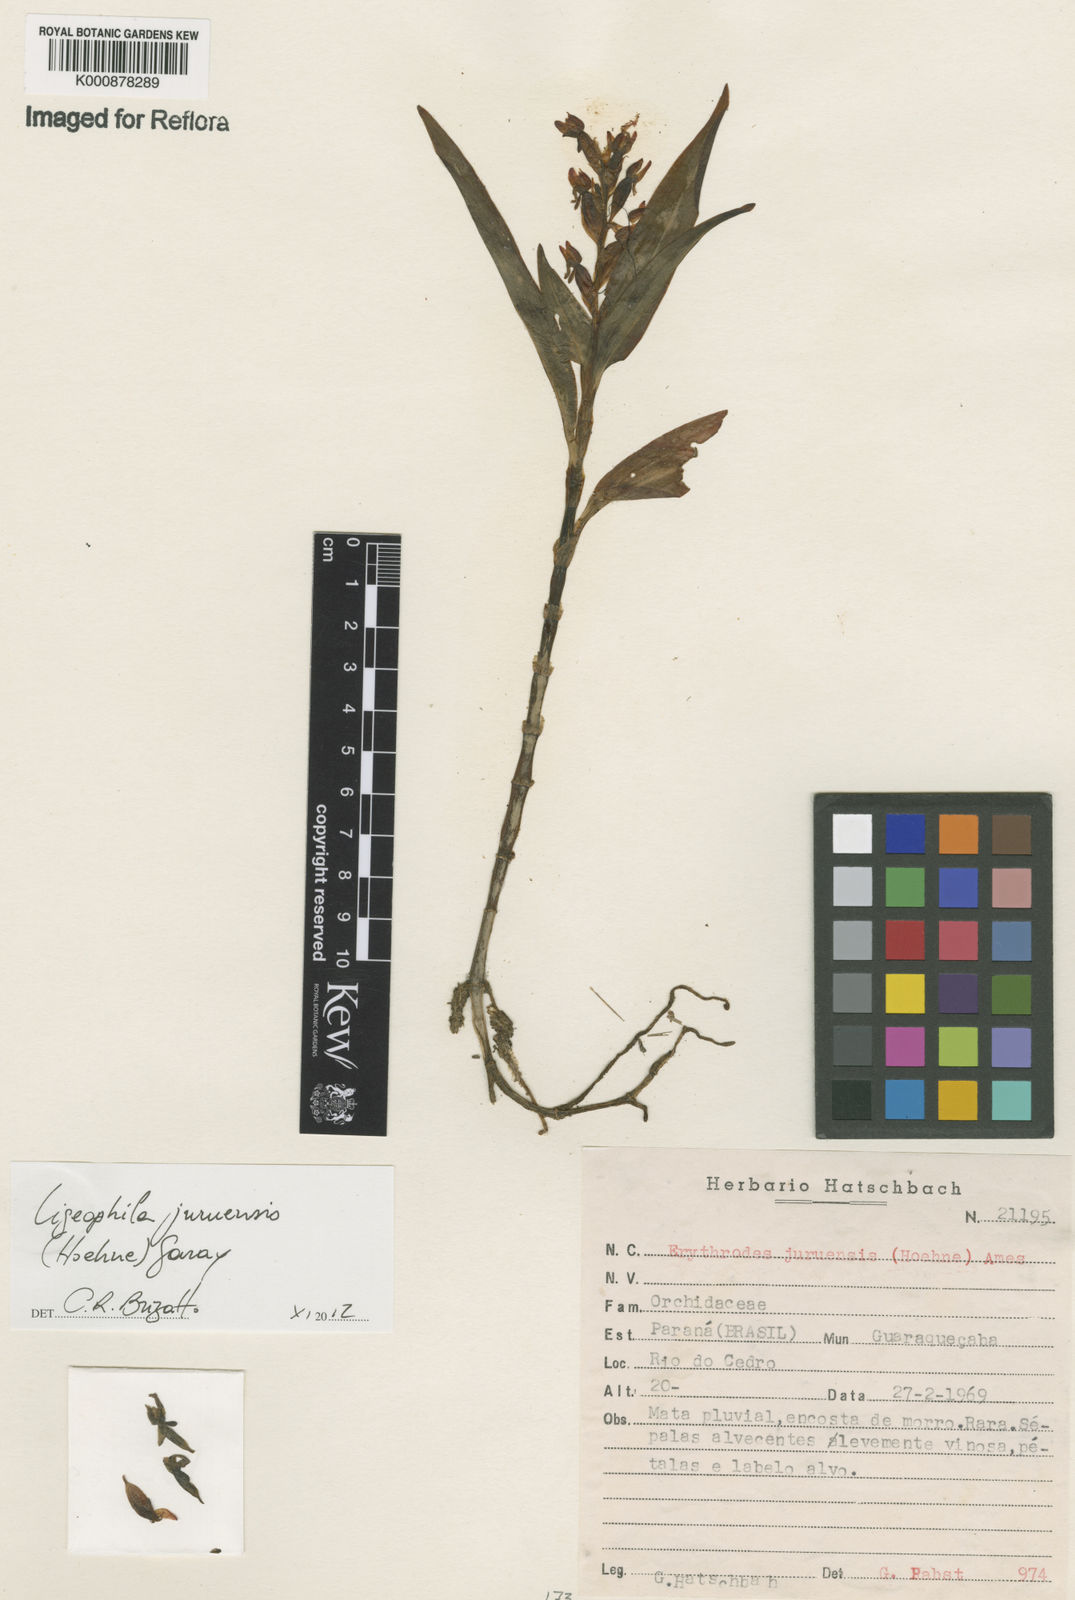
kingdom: Plantae
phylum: Tracheophyta
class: Liliopsida
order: Asparagales
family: Orchidaceae
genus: Aspidogyne
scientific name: Aspidogyne
